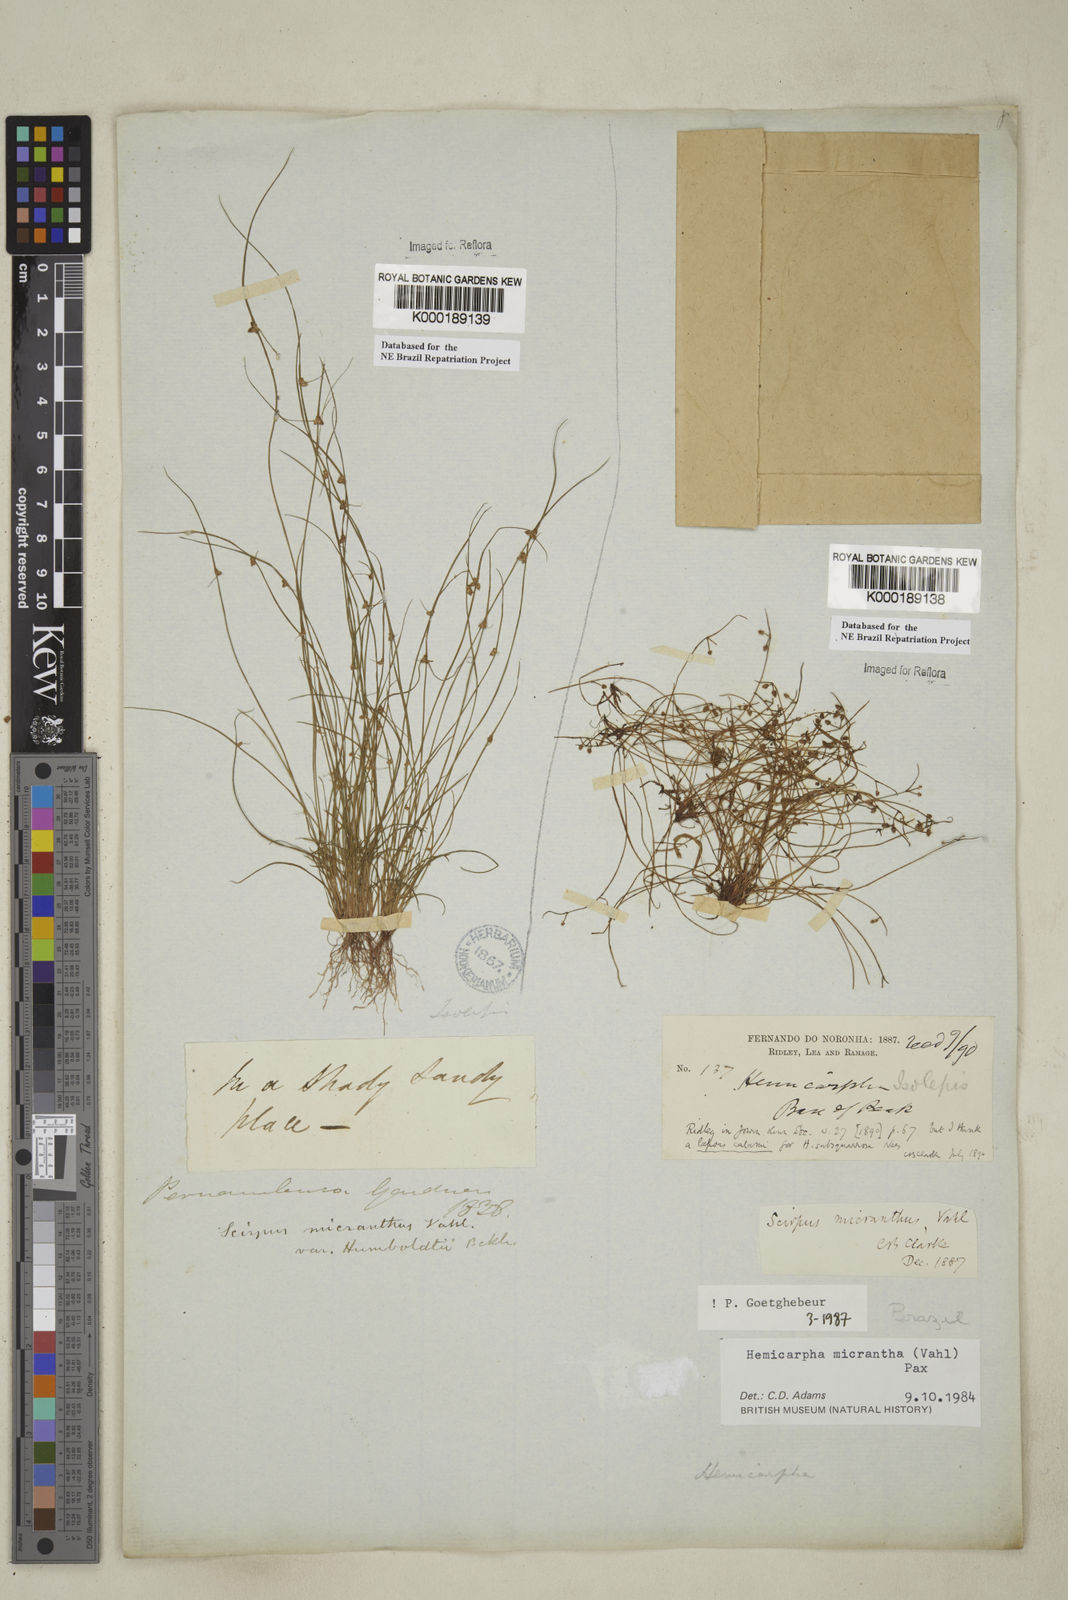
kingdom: Plantae
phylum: Tracheophyta
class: Liliopsida
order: Poales
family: Cyperaceae
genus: Cyperus
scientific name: Cyperus subsquarrosus
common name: Dwarf bulrush
